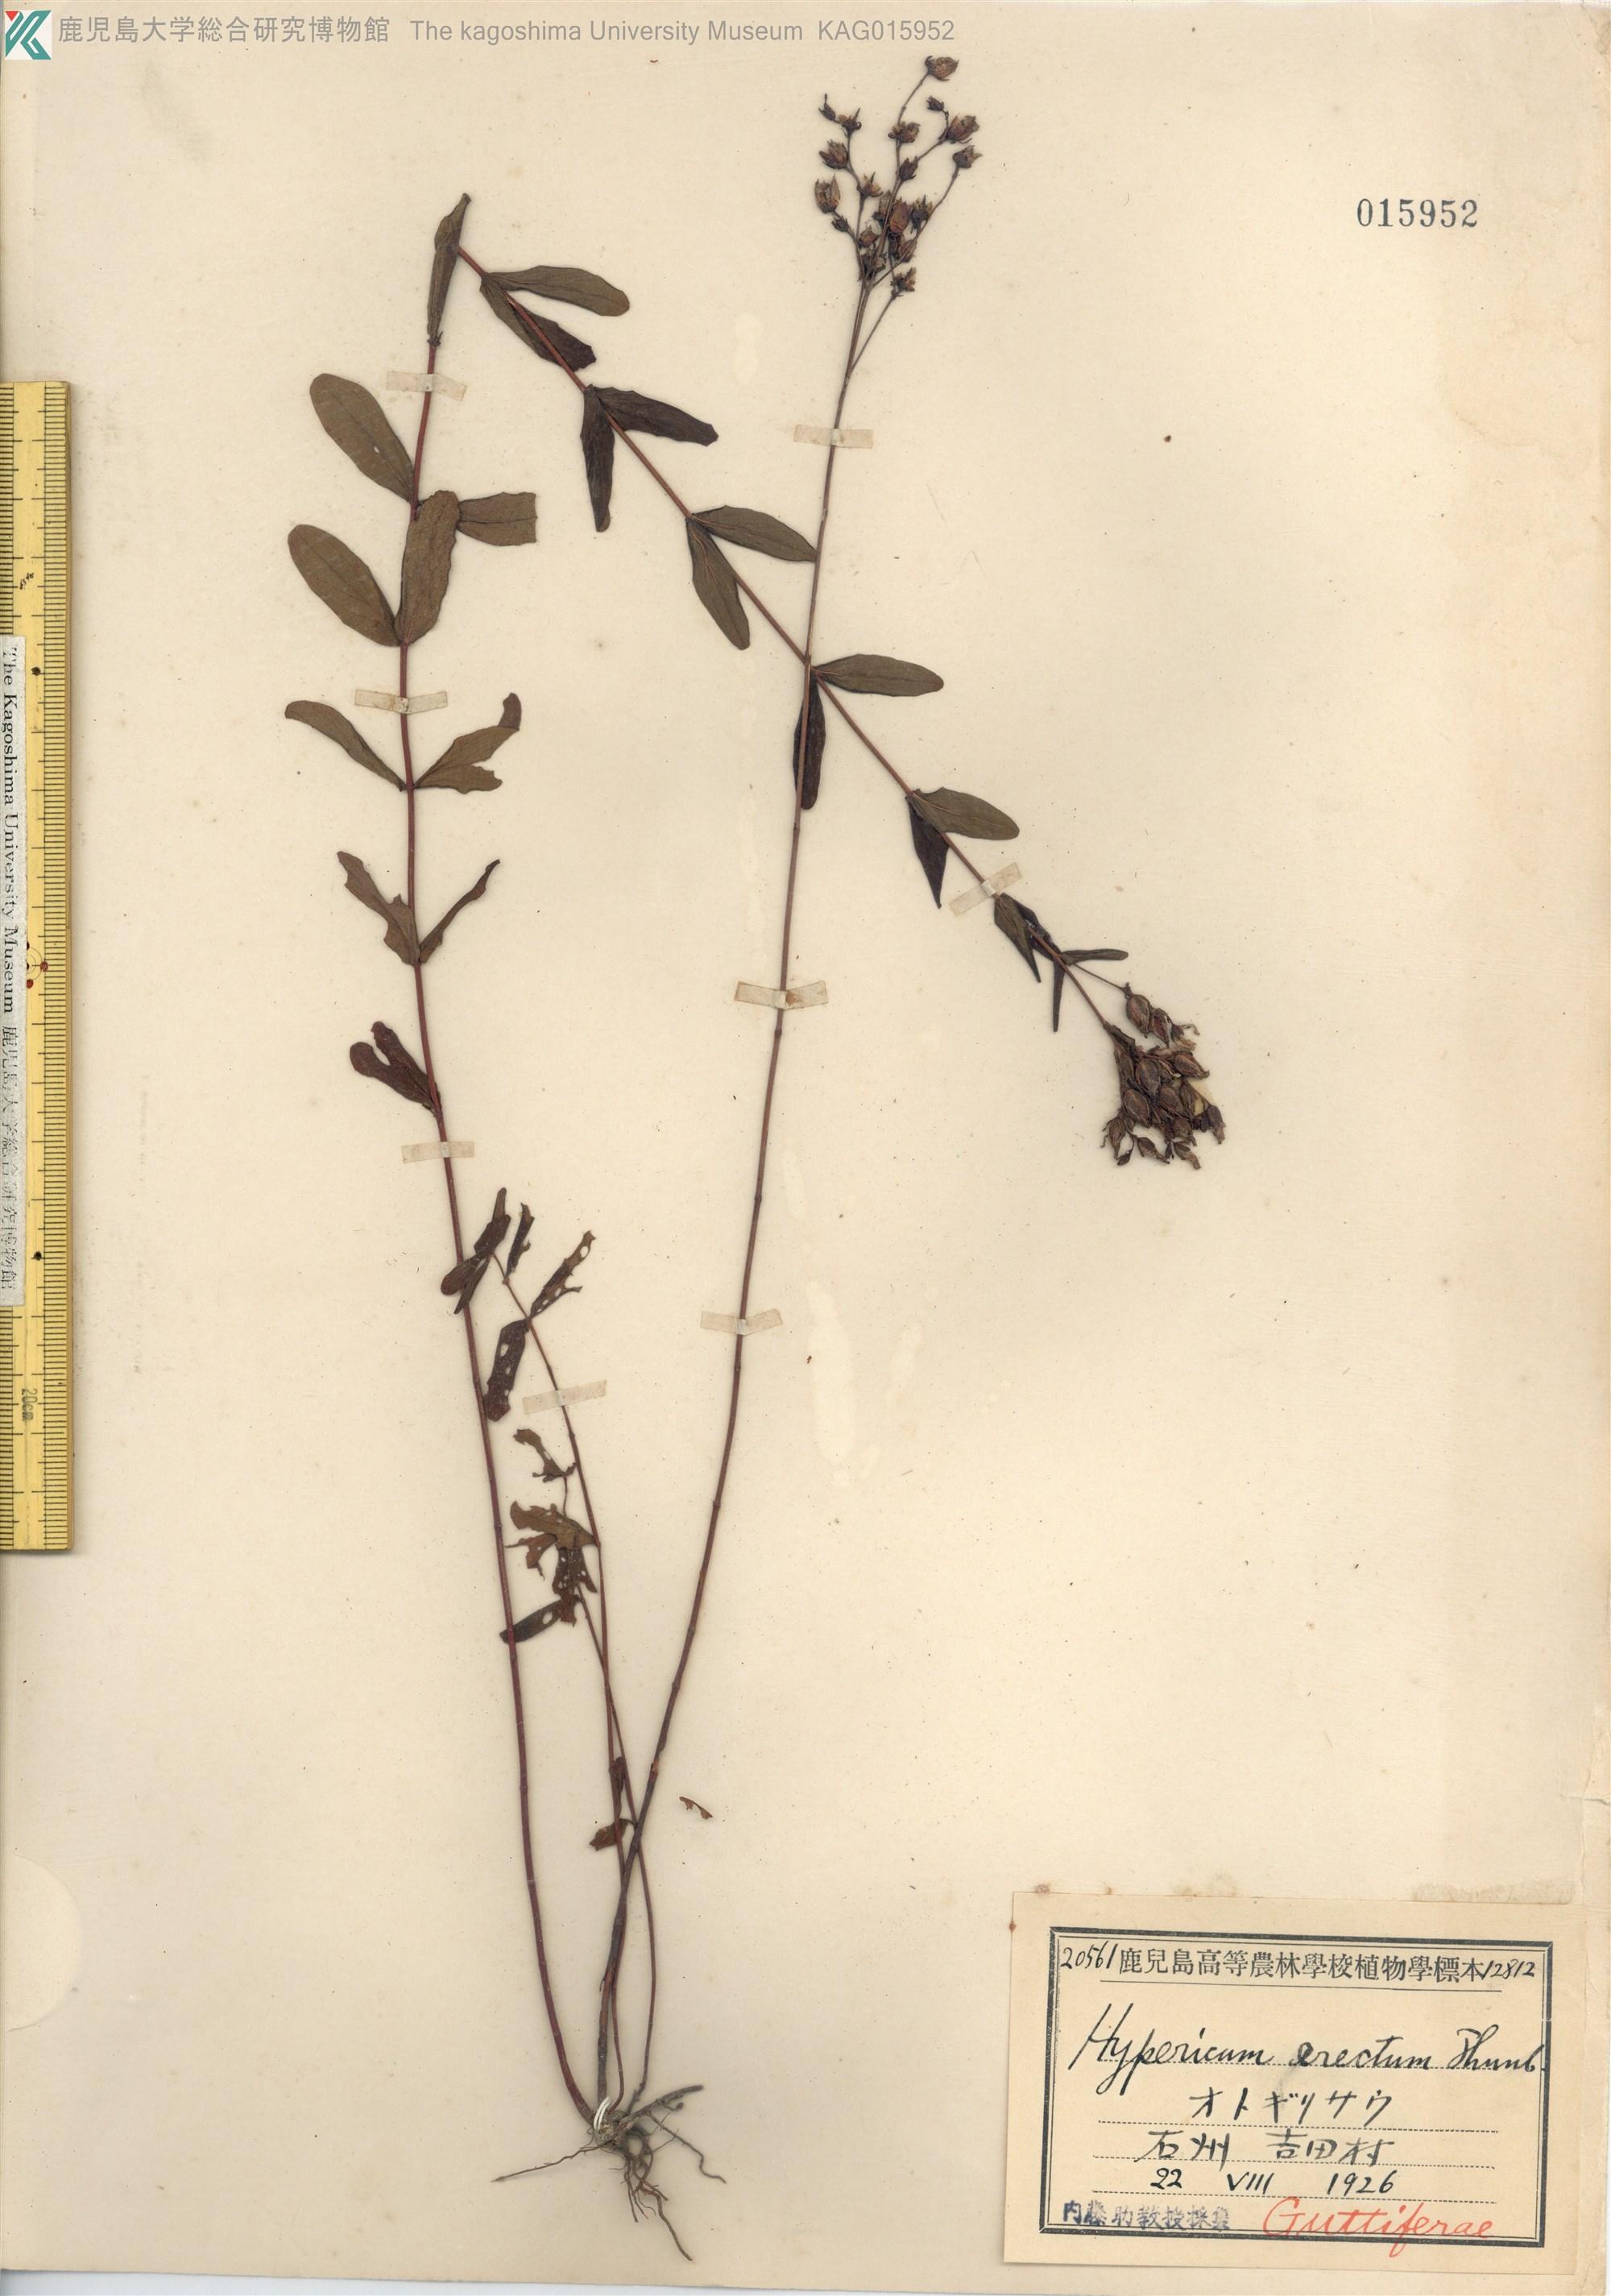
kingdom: Plantae
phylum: Tracheophyta
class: Magnoliopsida
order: Malpighiales
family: Hypericaceae
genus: Hypericum
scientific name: Hypericum erectum
